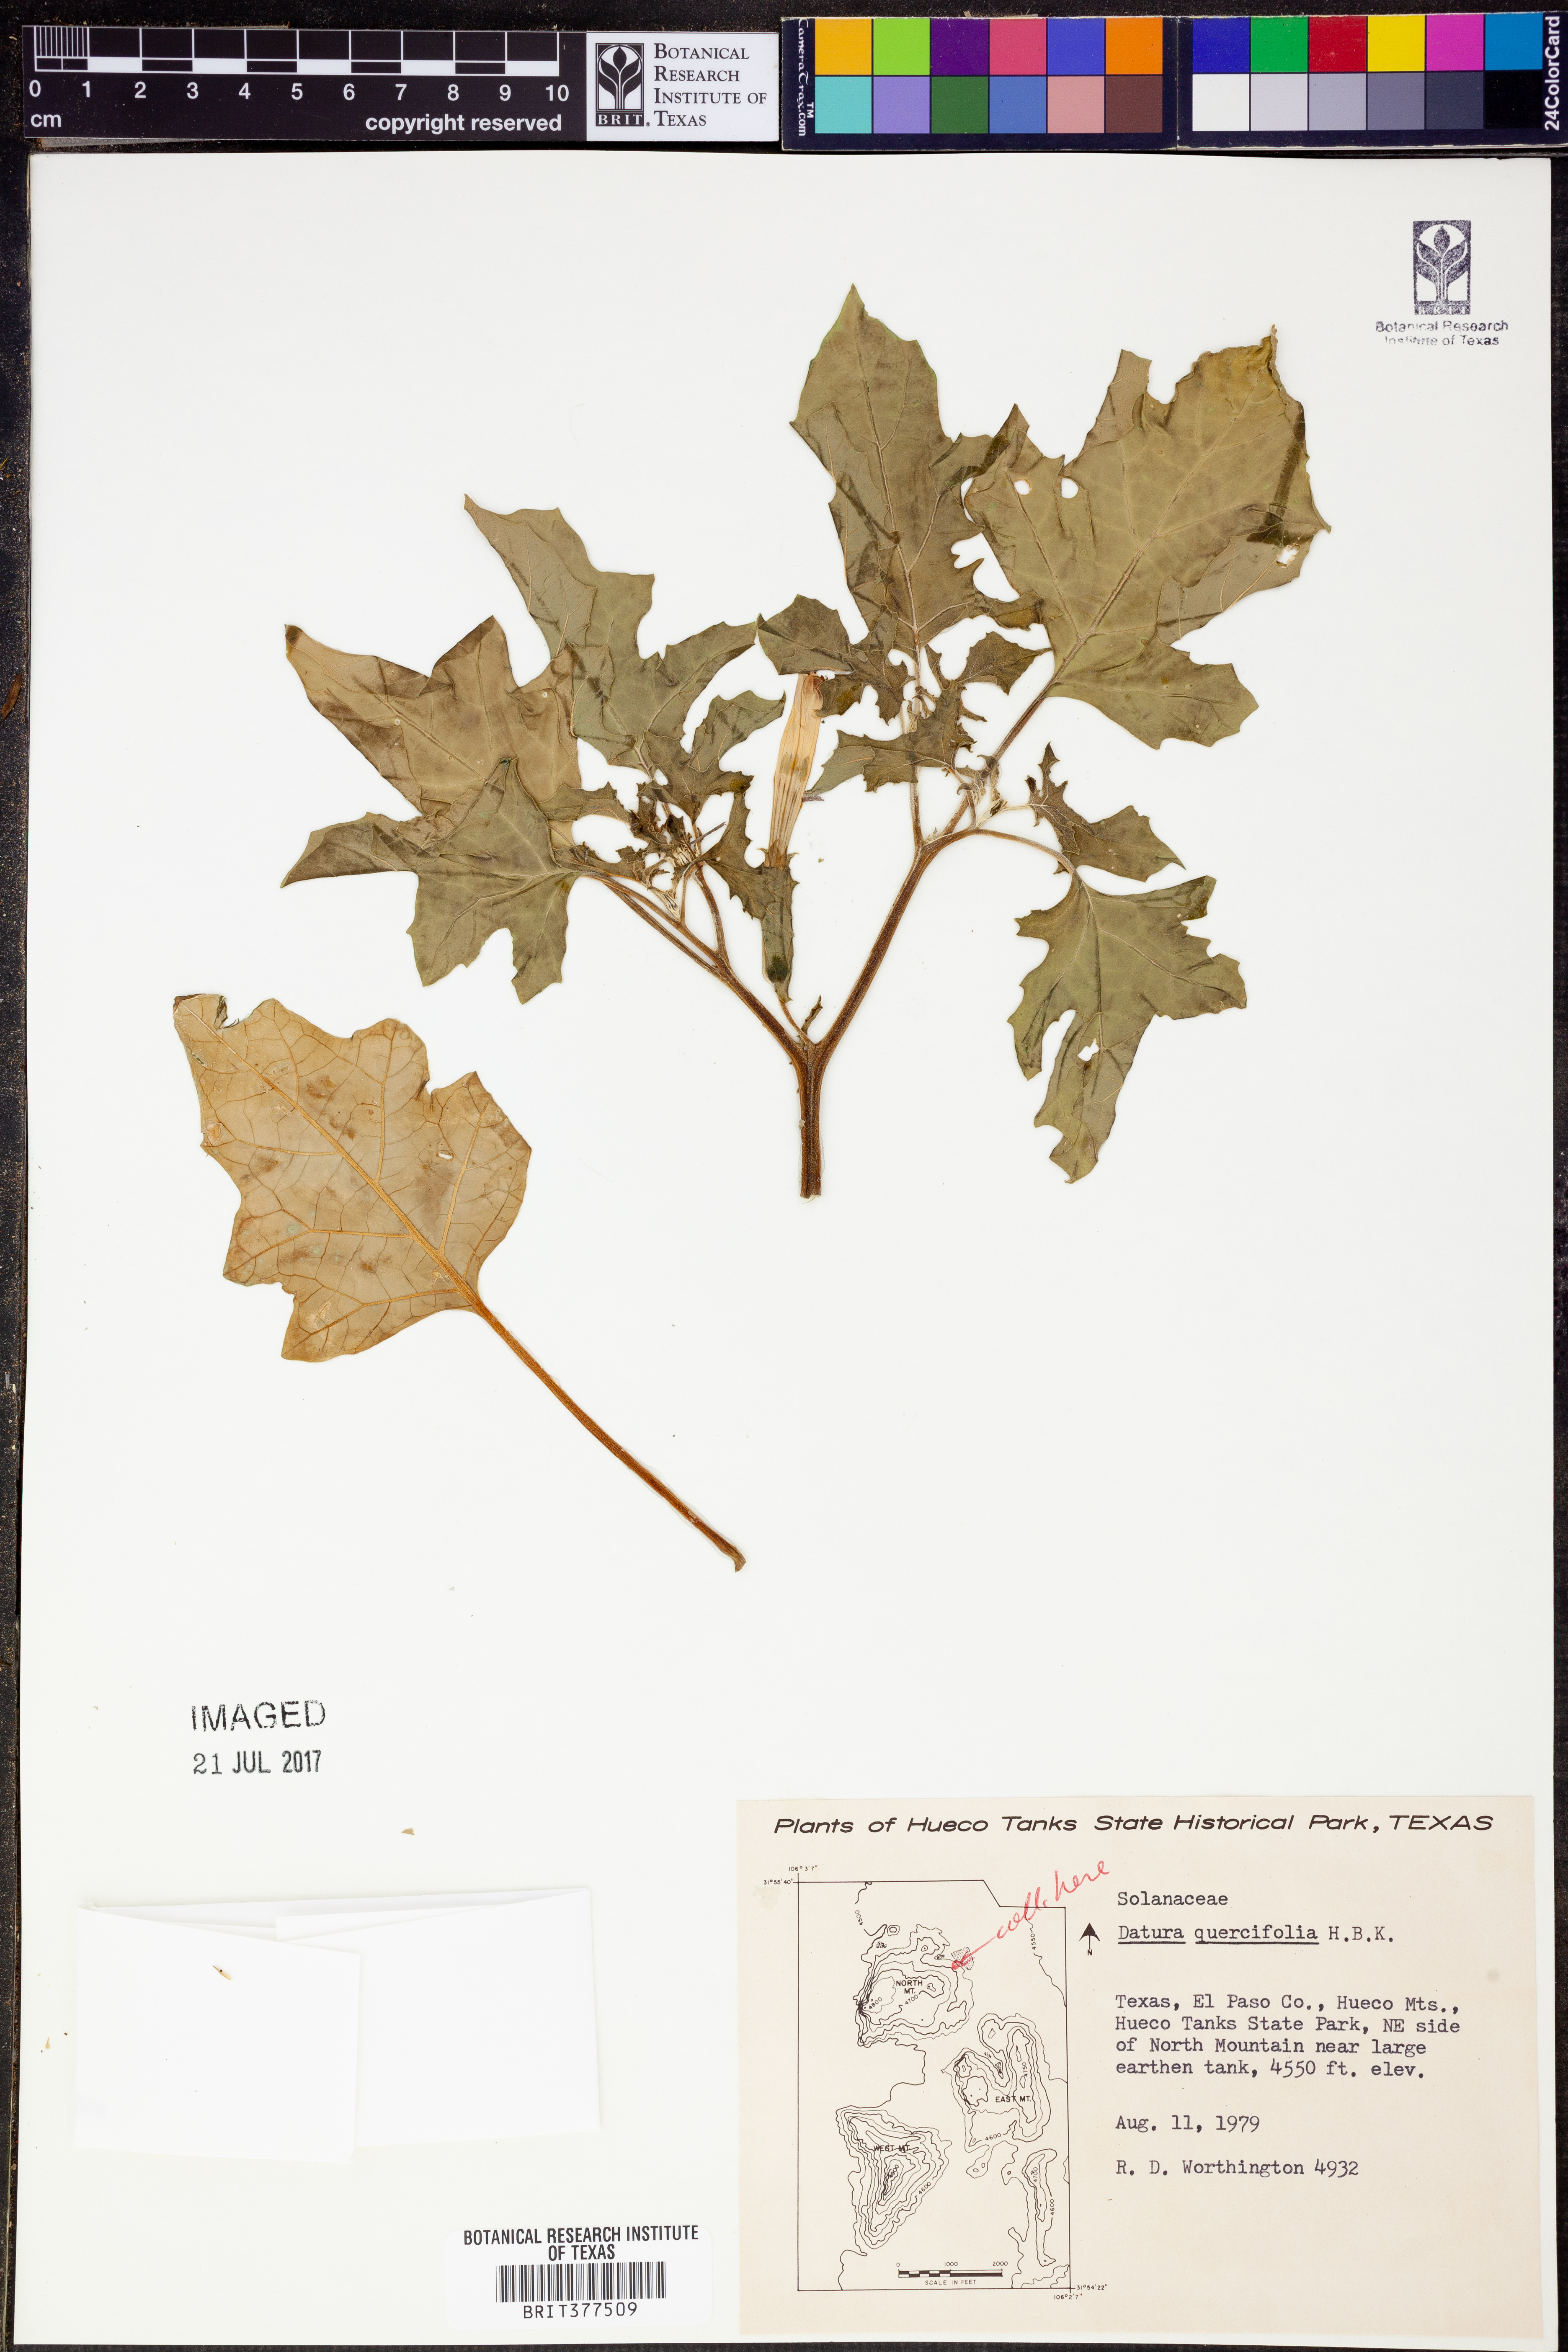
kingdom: Plantae
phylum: Tracheophyta
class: Magnoliopsida
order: Solanales
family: Solanaceae
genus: Datura
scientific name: Datura quercifolia
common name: Oak-leaf datura
